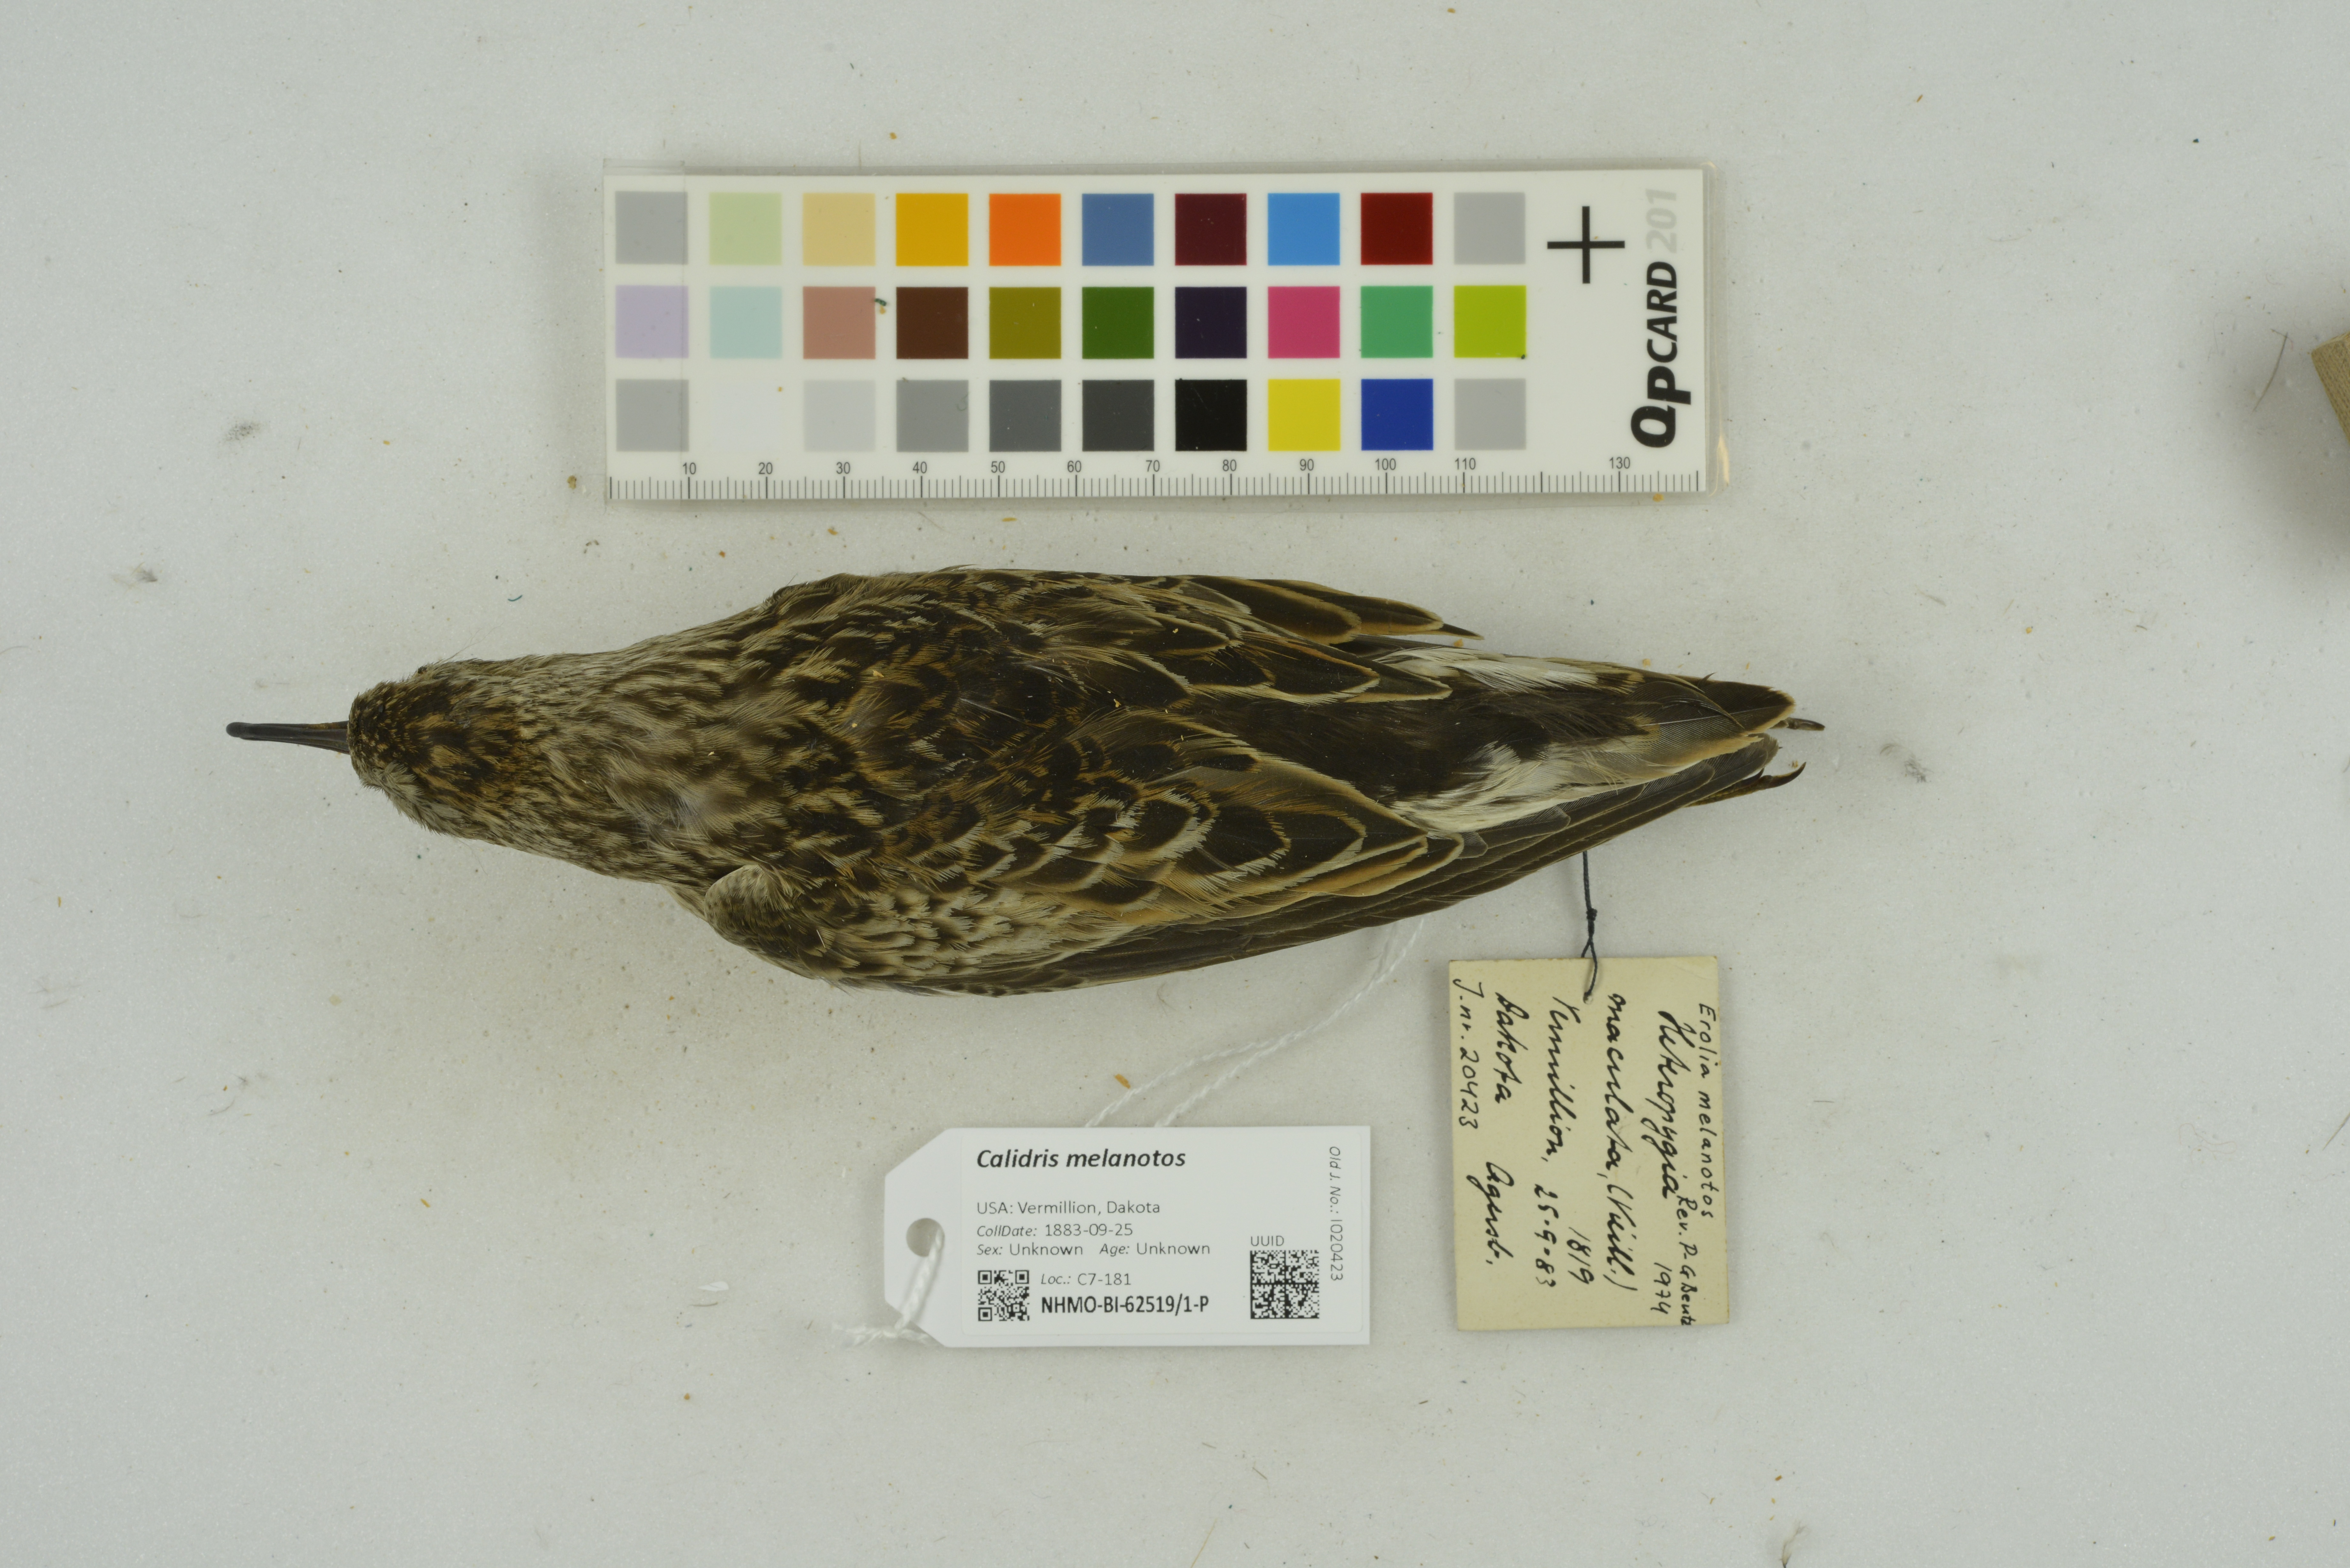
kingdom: Animalia
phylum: Chordata
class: Aves
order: Charadriiformes
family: Scolopacidae
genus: Calidris
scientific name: Calidris melanotos
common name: Pectoral sandpiper
